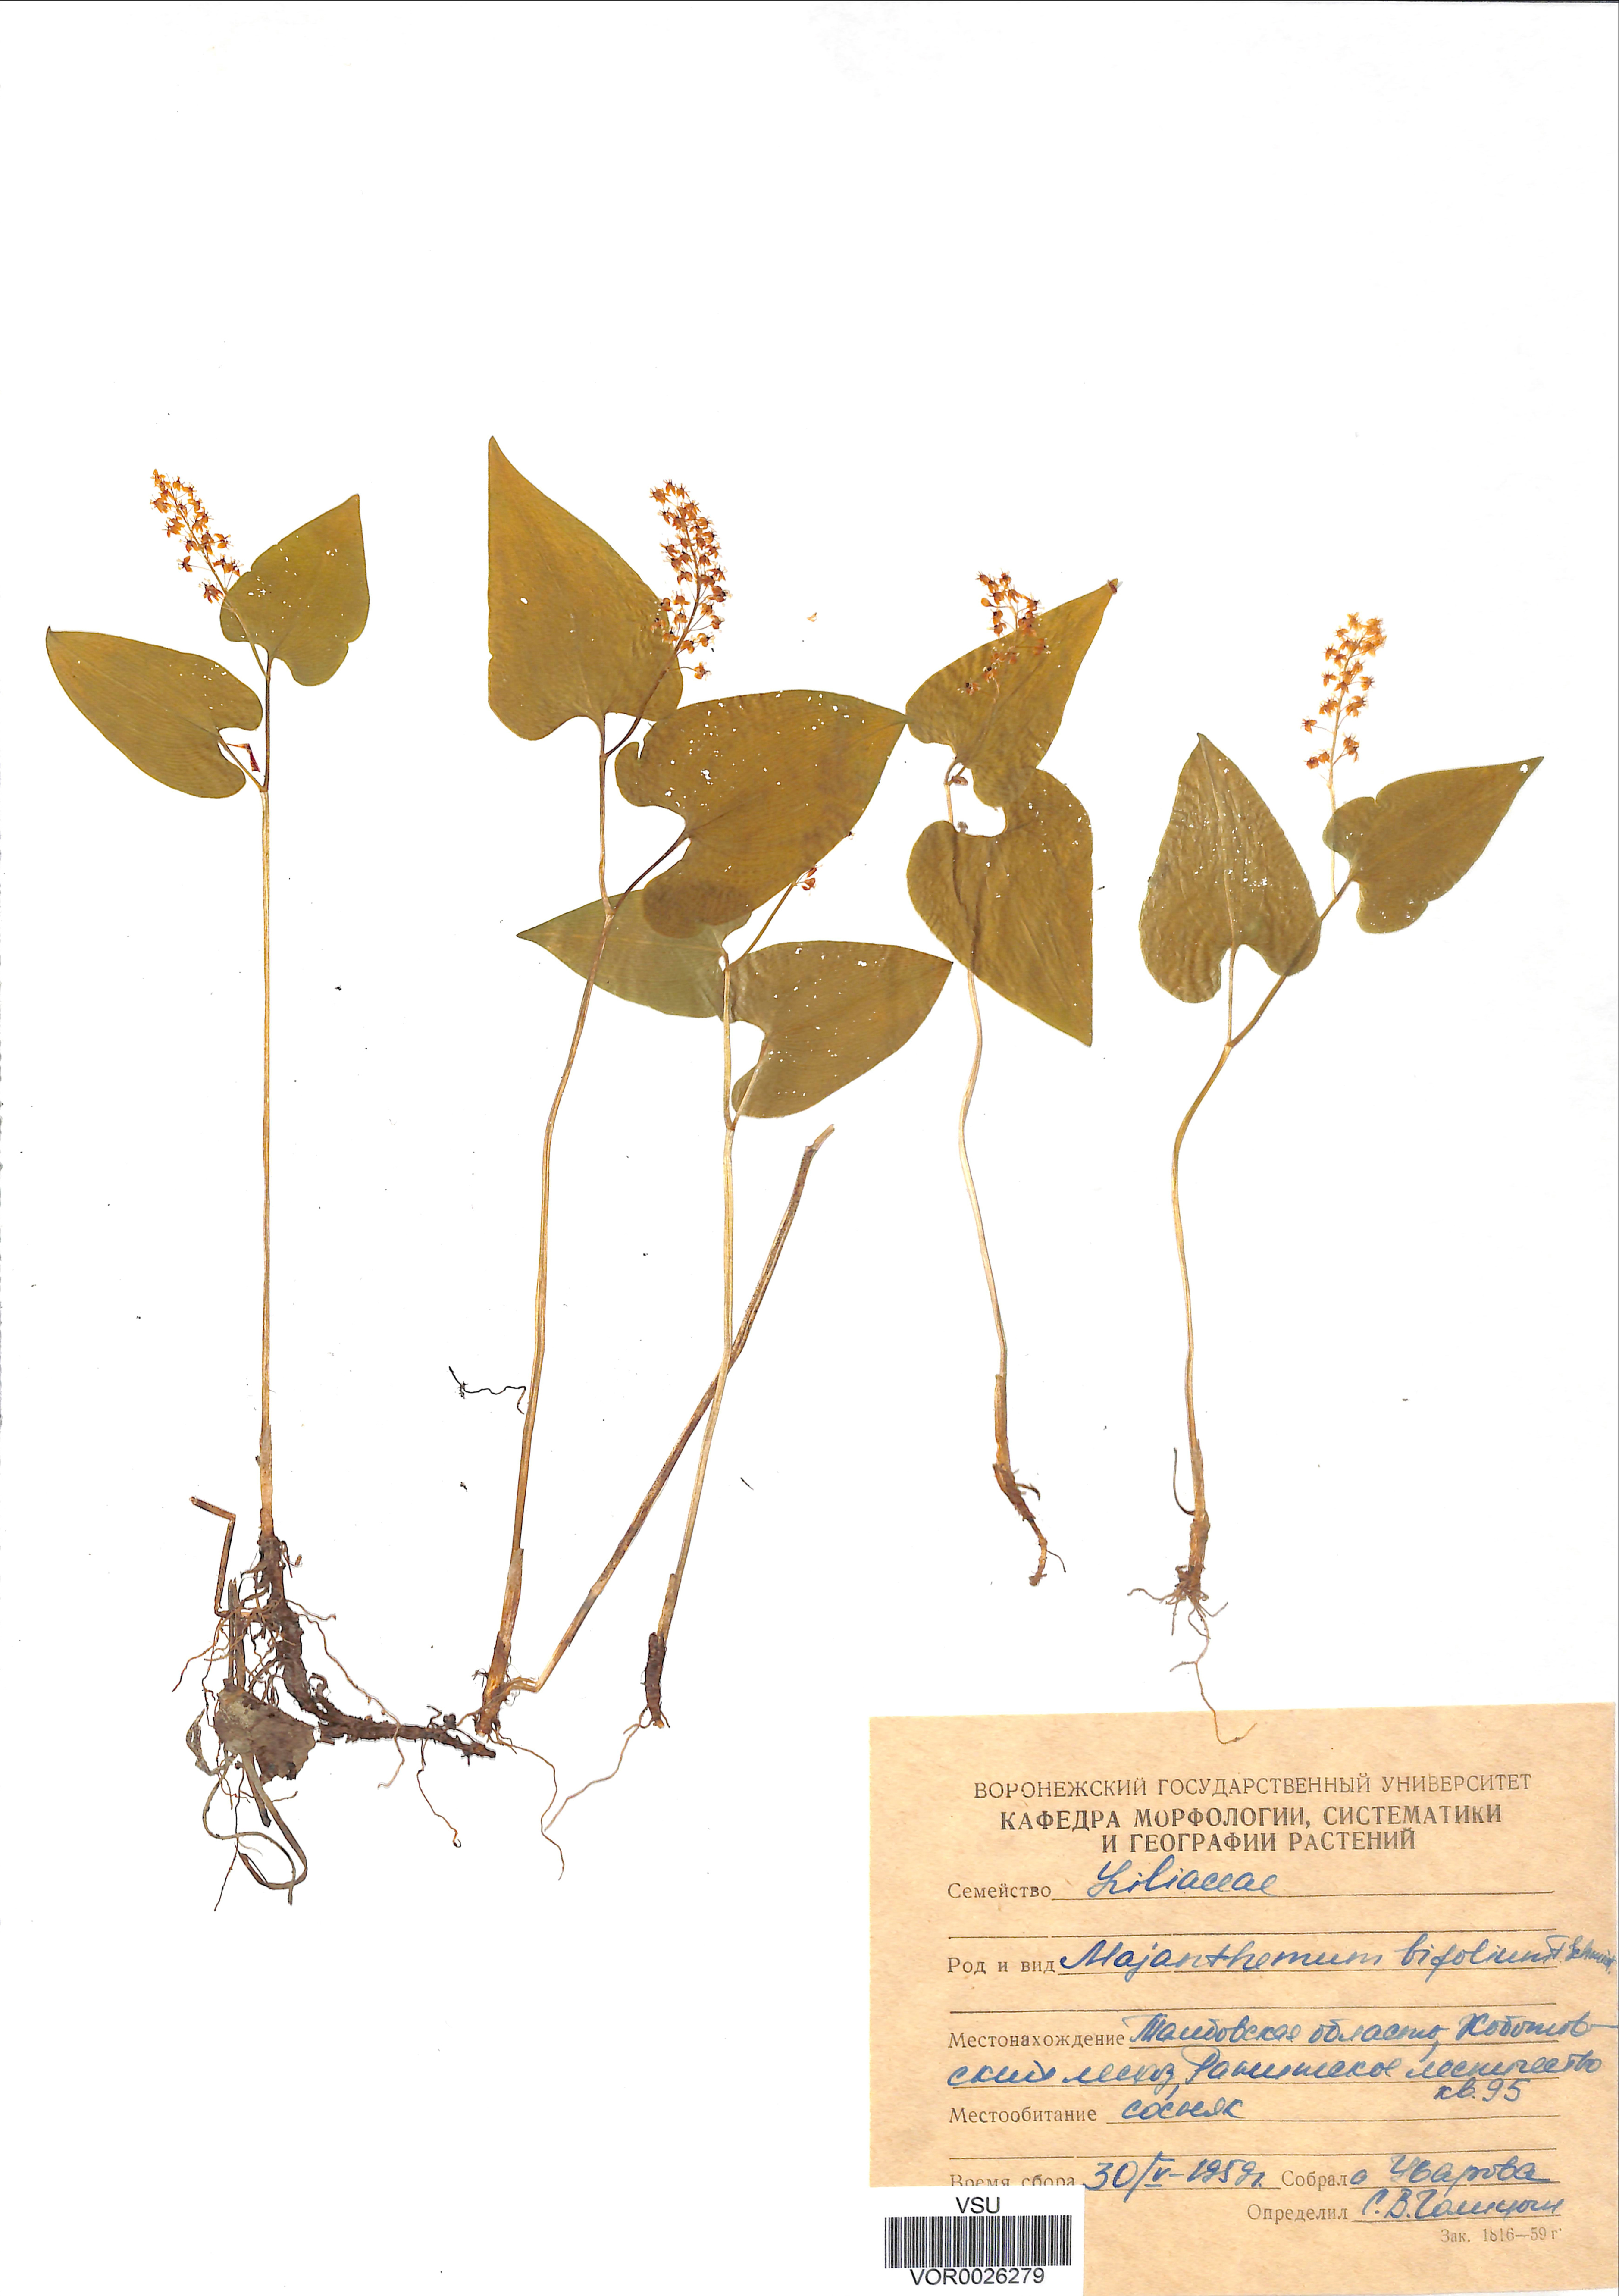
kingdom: Plantae
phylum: Tracheophyta
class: Liliopsida
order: Asparagales
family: Asparagaceae
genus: Maianthemum
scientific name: Maianthemum bifolium
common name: May lily
